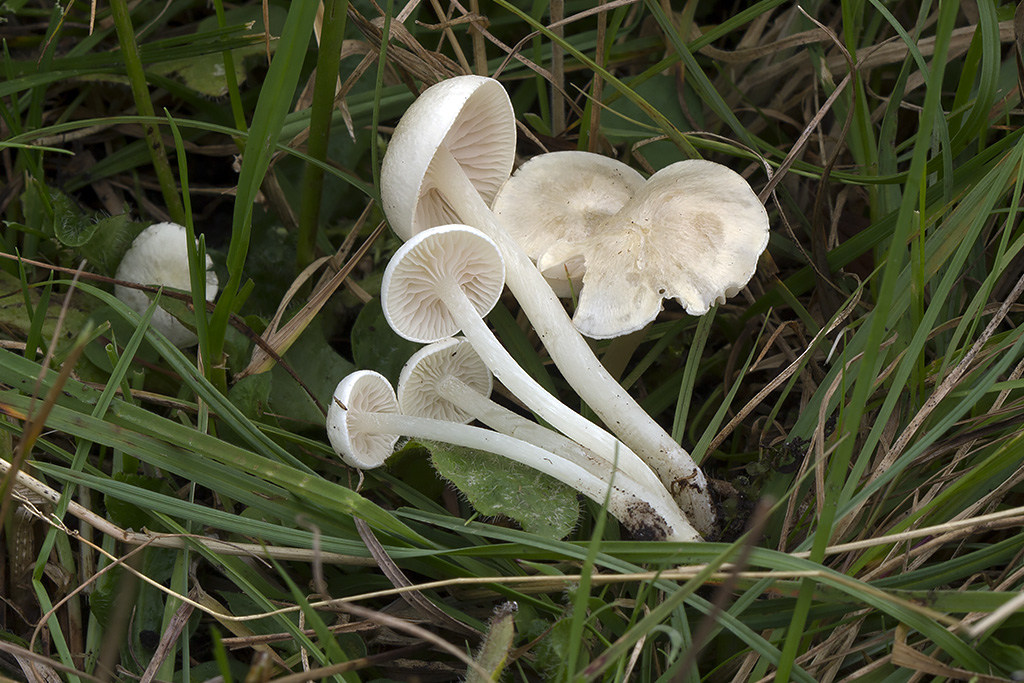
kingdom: Fungi
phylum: Basidiomycota
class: Agaricomycetes
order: Agaricales
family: Entolomataceae
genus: Entoloma
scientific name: Entoloma sericellum
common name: silkehvid rødblad
